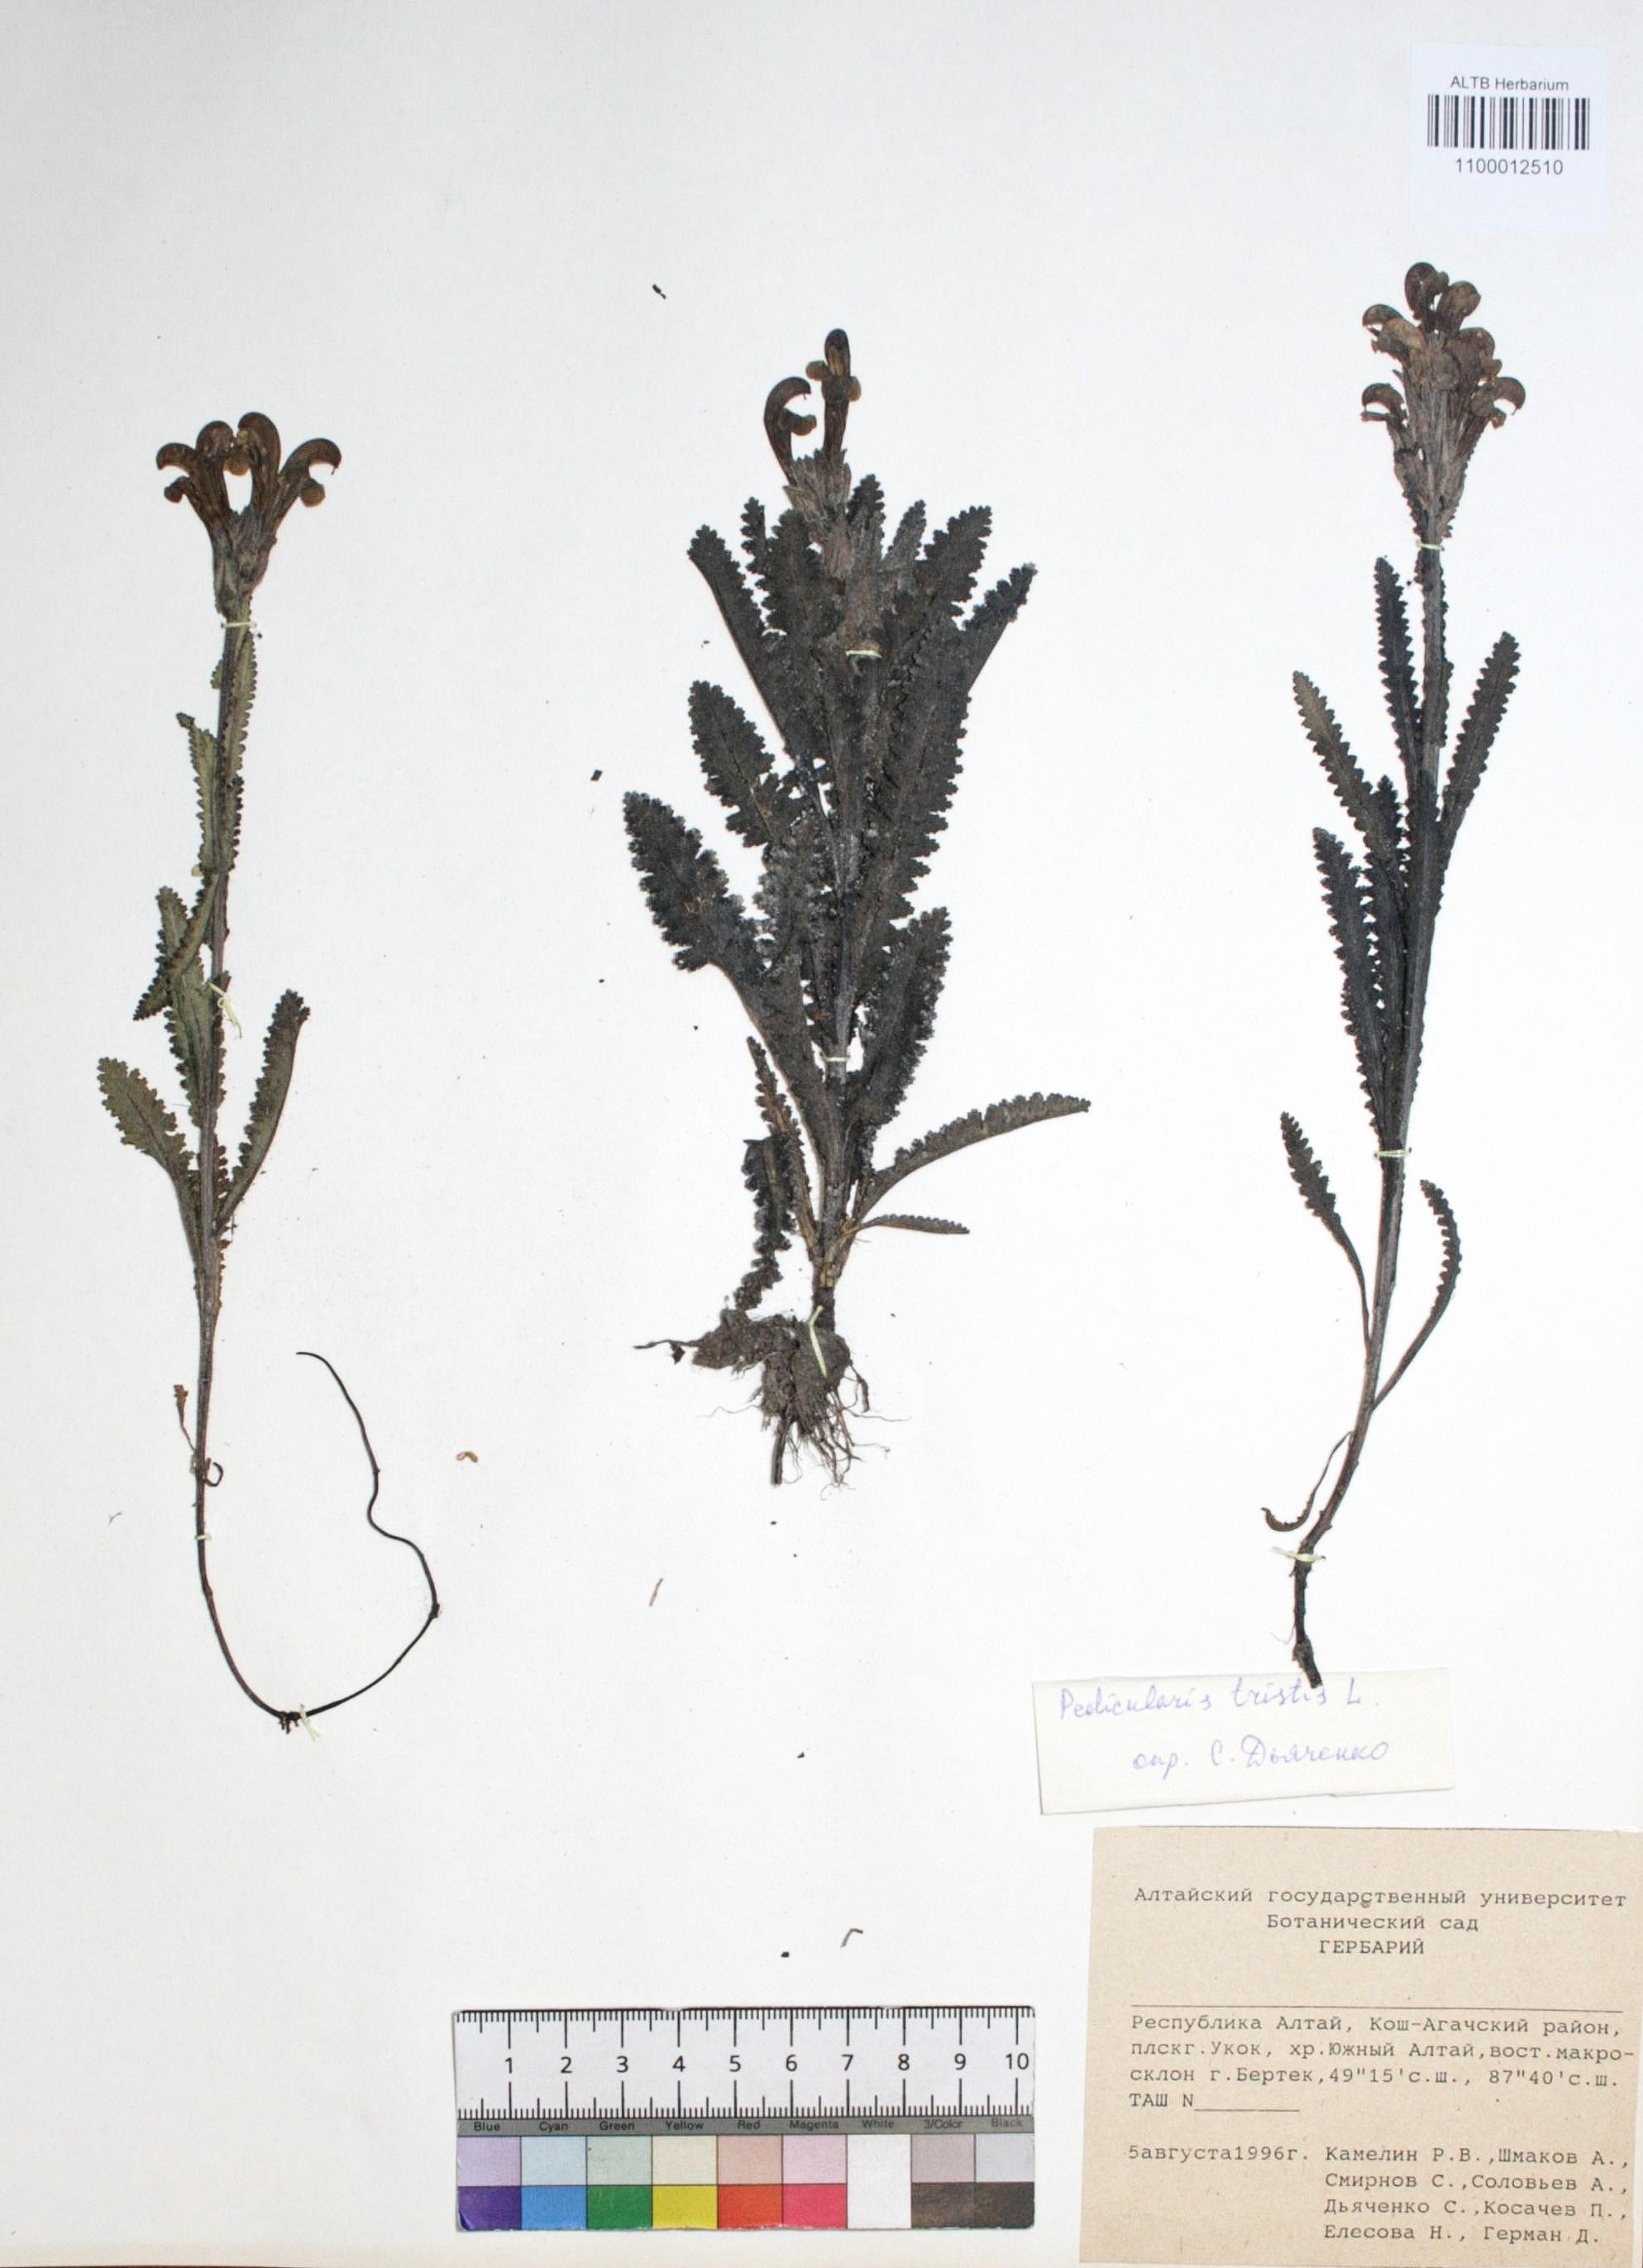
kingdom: Plantae
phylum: Tracheophyta
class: Magnoliopsida
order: Lamiales
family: Orobanchaceae
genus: Pedicularis
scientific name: Pedicularis tristis
